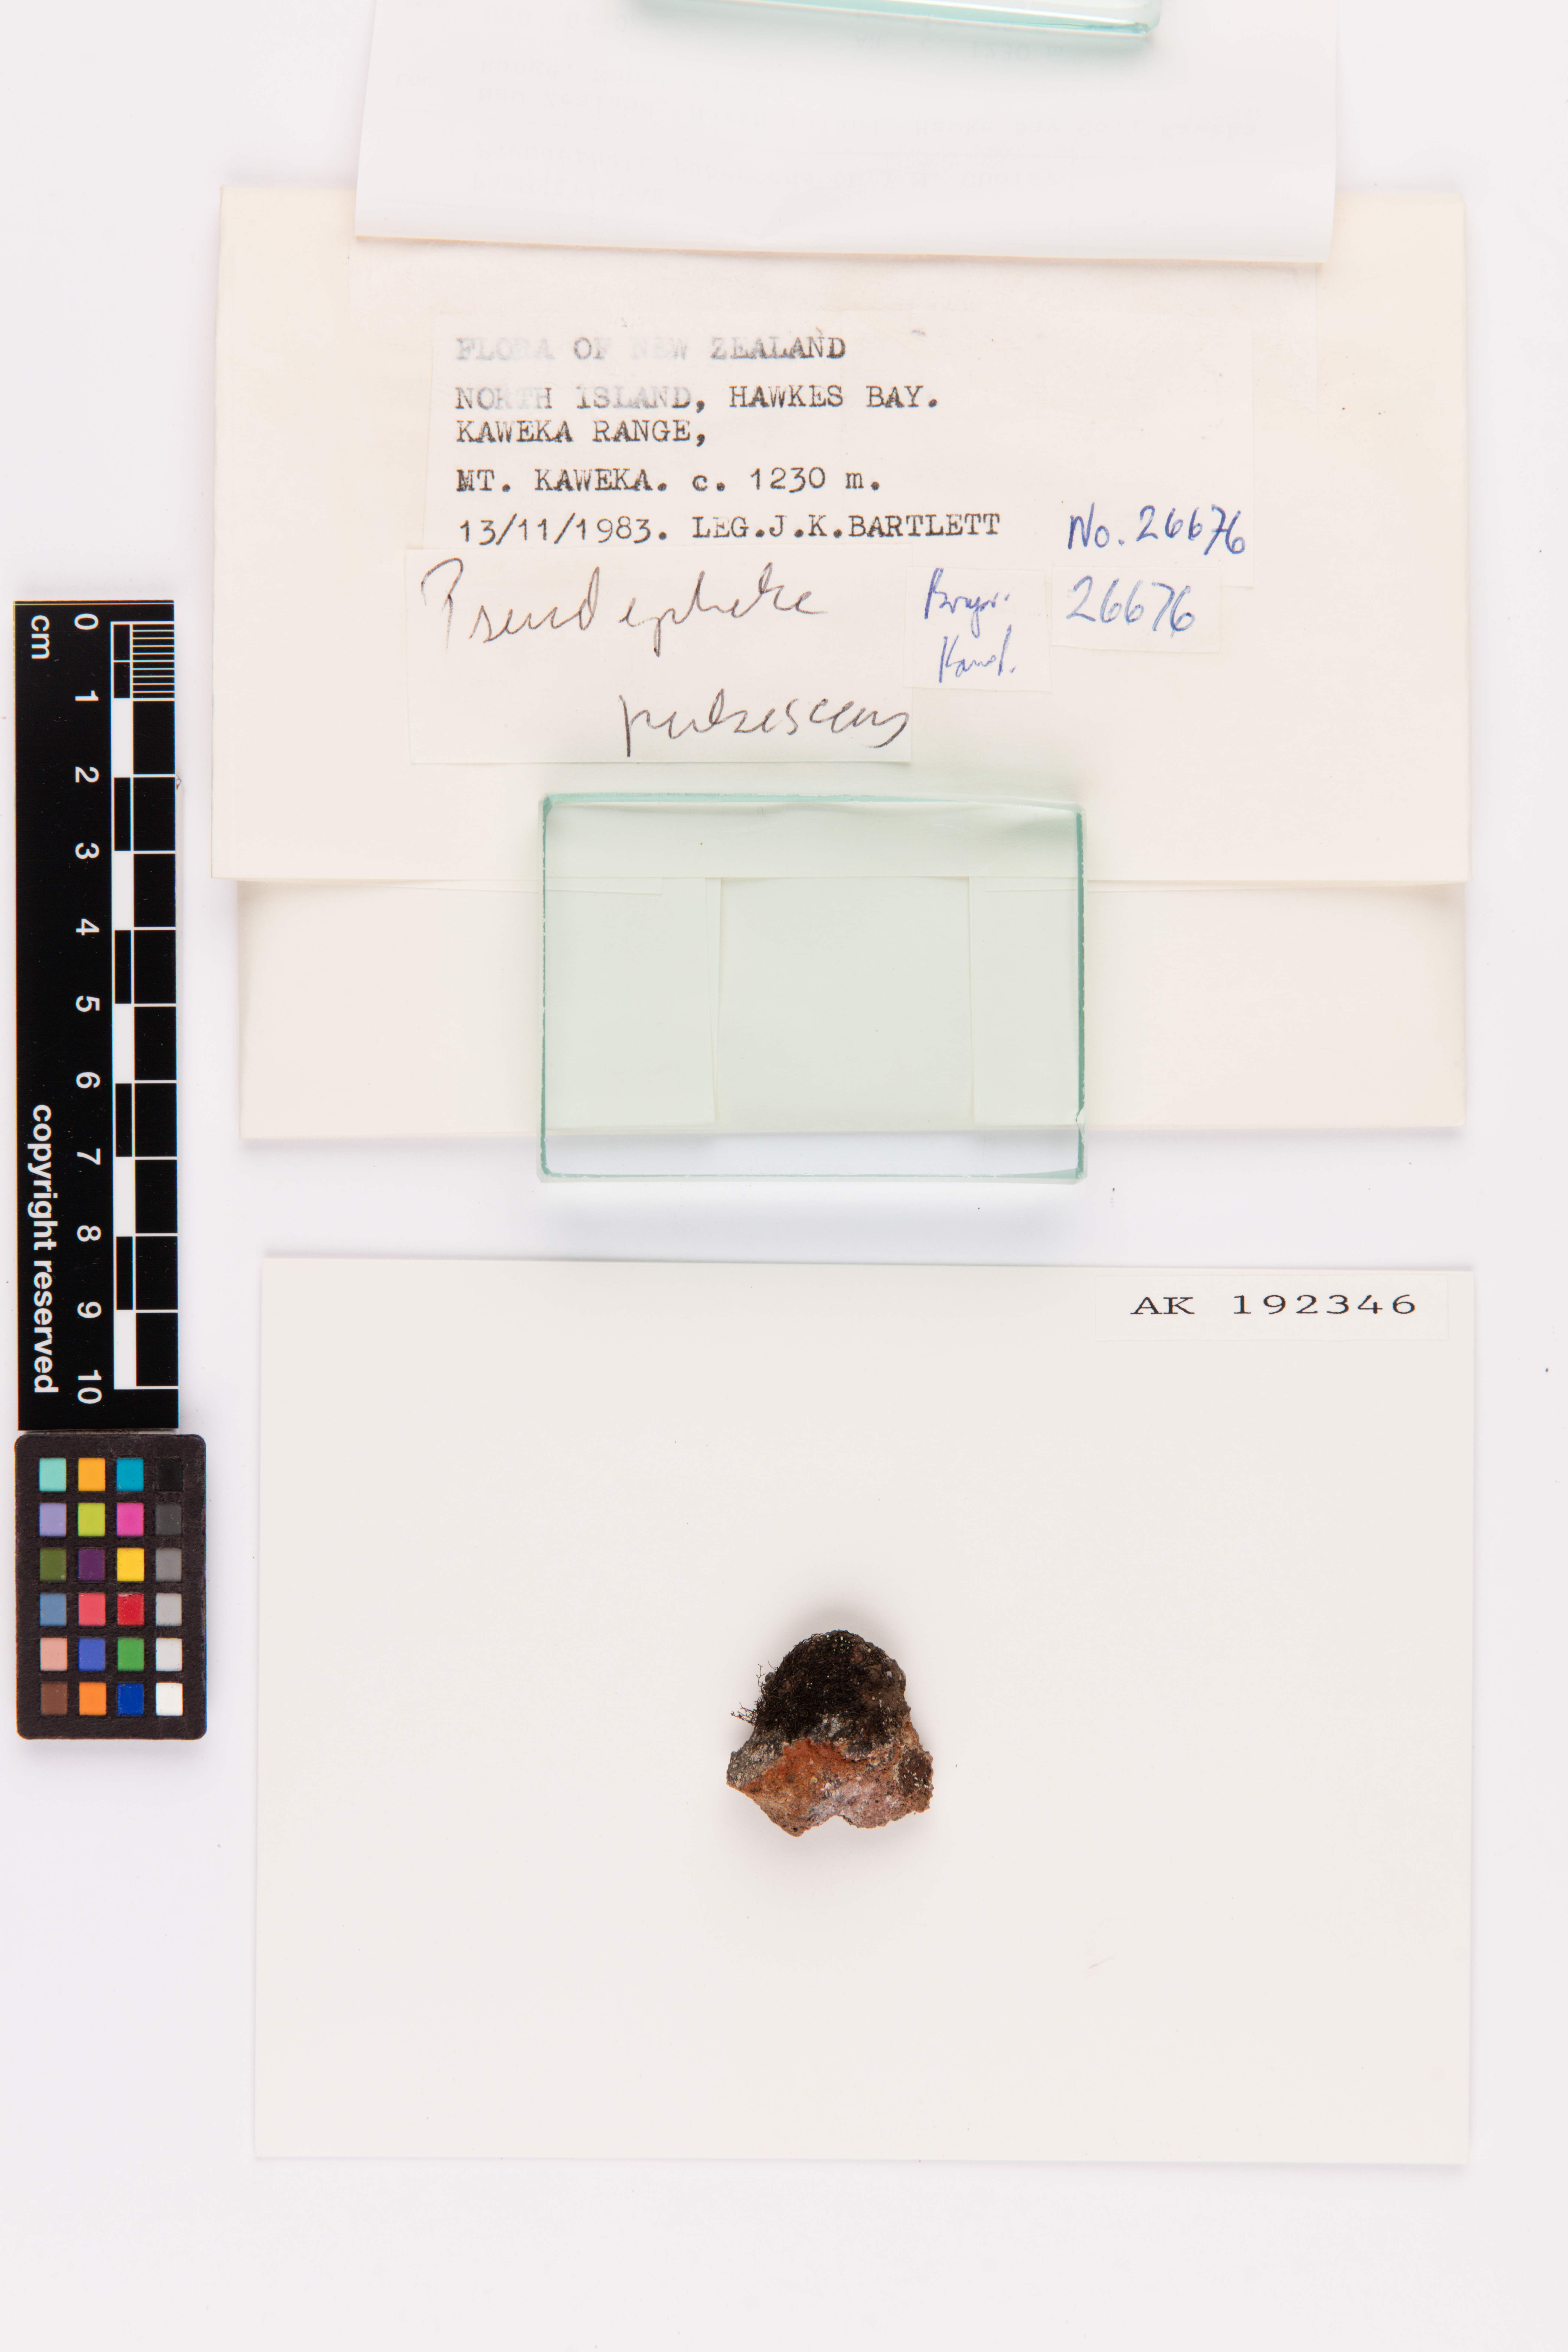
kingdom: Fungi
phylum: Ascomycota
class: Lecanoromycetes
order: Lecanorales
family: Parmeliaceae
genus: Pseudephebe
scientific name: Pseudephebe pubescens
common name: Fine rockwool lichen
